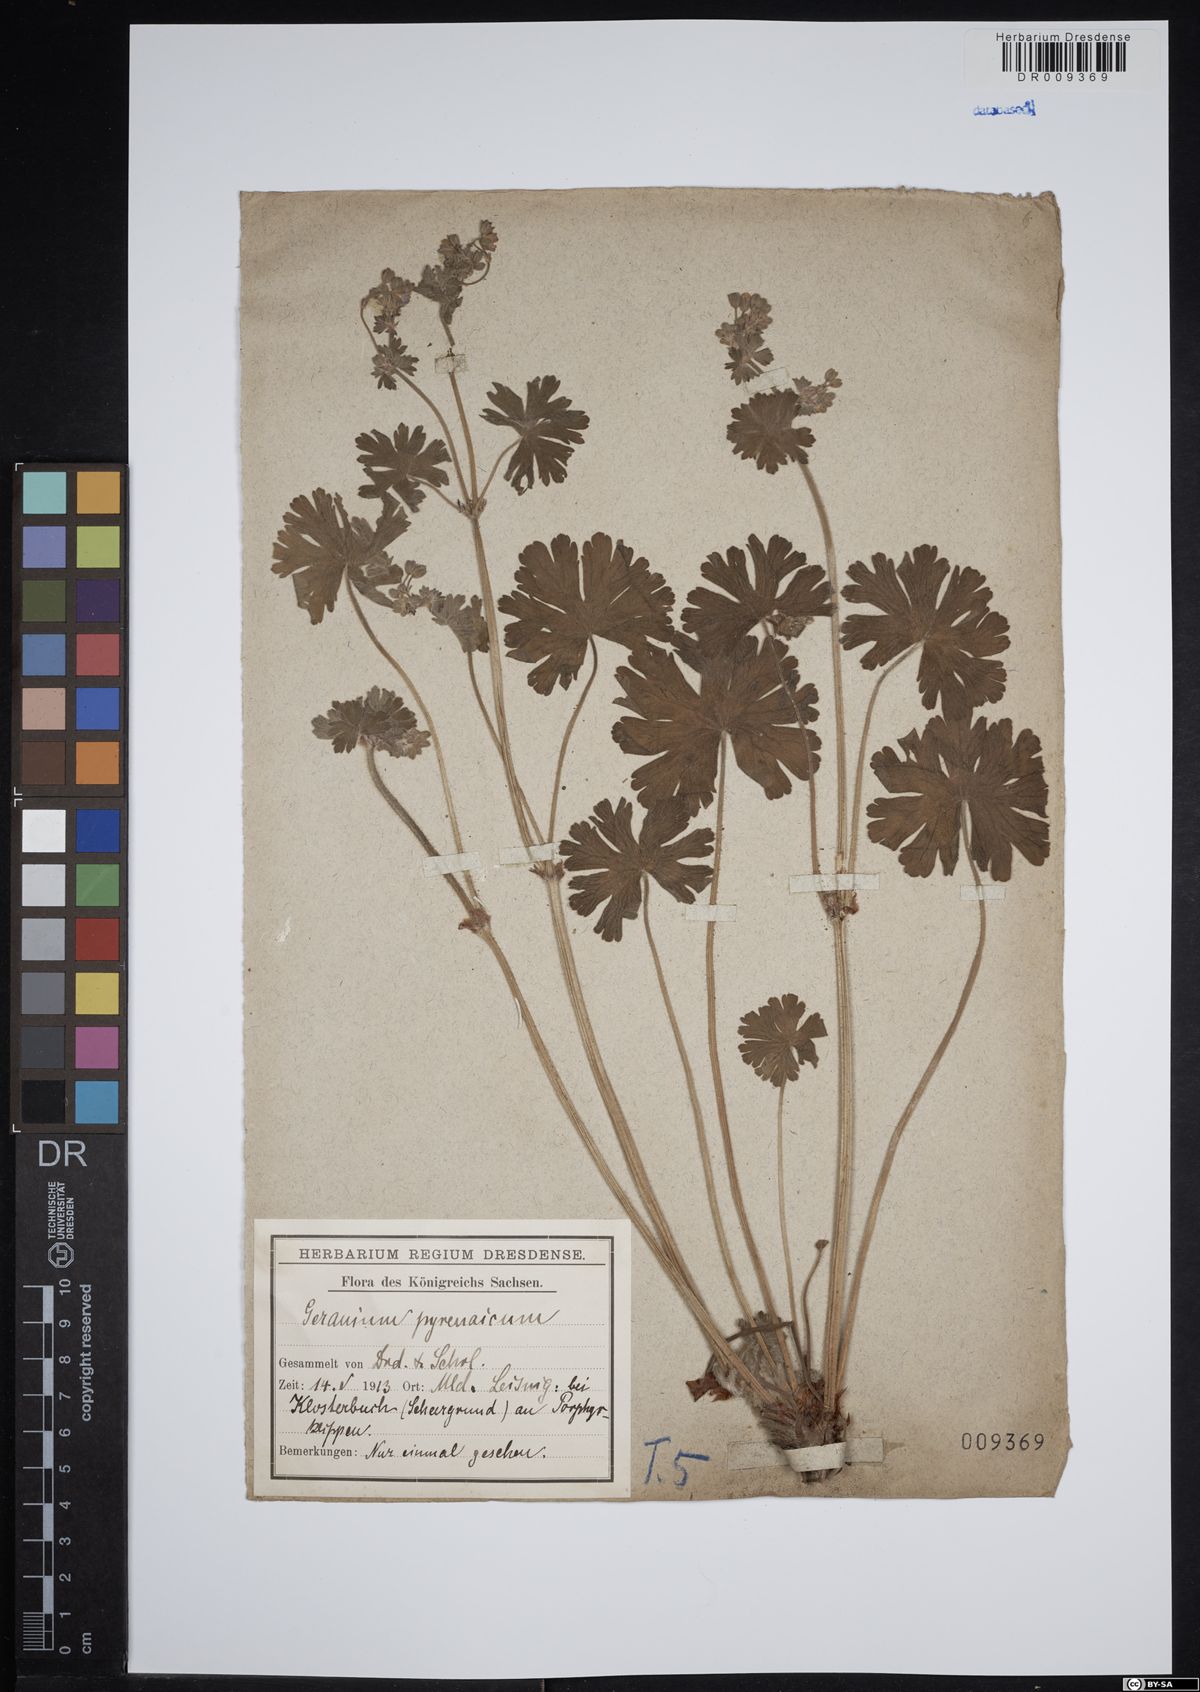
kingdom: Plantae
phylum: Tracheophyta
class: Magnoliopsida
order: Geraniales
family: Geraniaceae
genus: Geranium
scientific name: Geranium pyrenaicum
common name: Hedgerow crane's-bill
